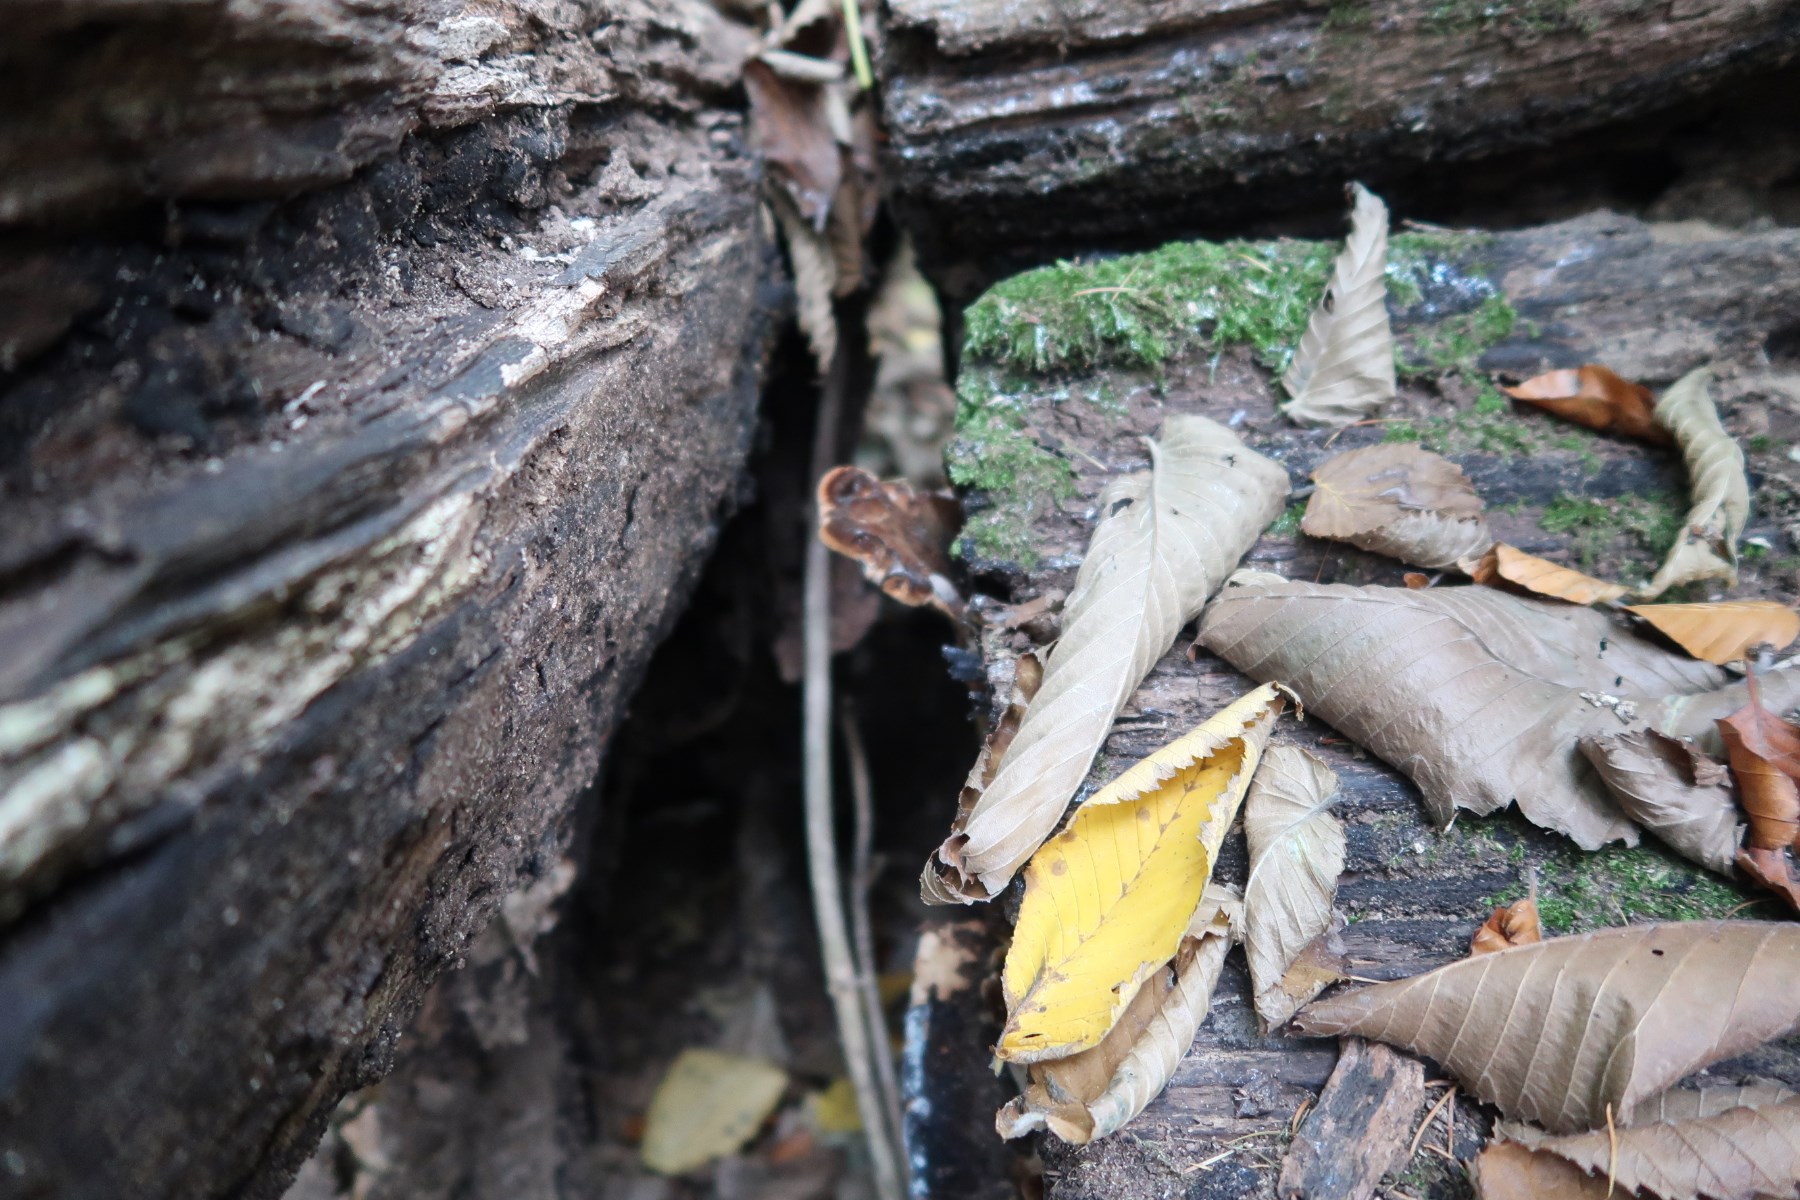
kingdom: Fungi
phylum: Basidiomycota
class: Agaricomycetes
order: Polyporales
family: Ischnodermataceae
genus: Ischnoderma
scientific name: Ischnoderma resinosum
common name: løv-tjæreporesvamp
